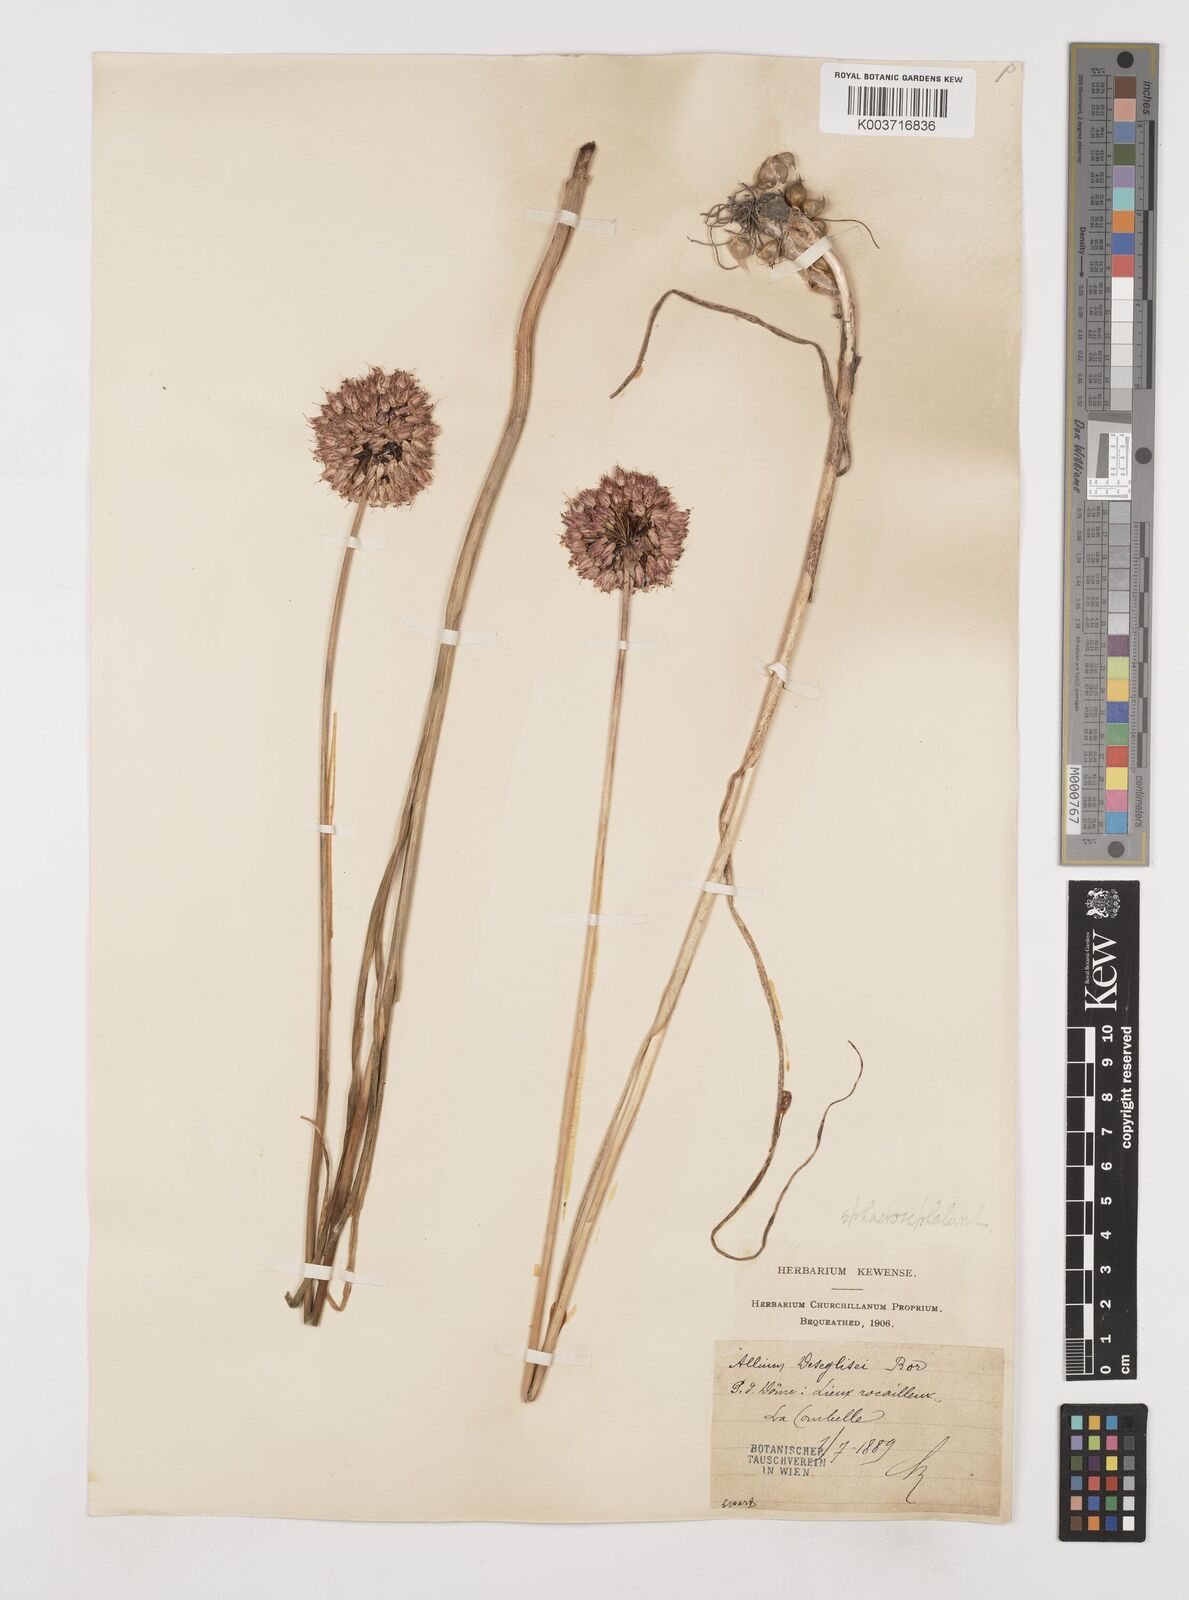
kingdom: Plantae
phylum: Tracheophyta
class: Liliopsida
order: Asparagales
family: Amaryllidaceae
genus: Allium
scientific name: Allium sphaerocephalon
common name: Round-headed leek
